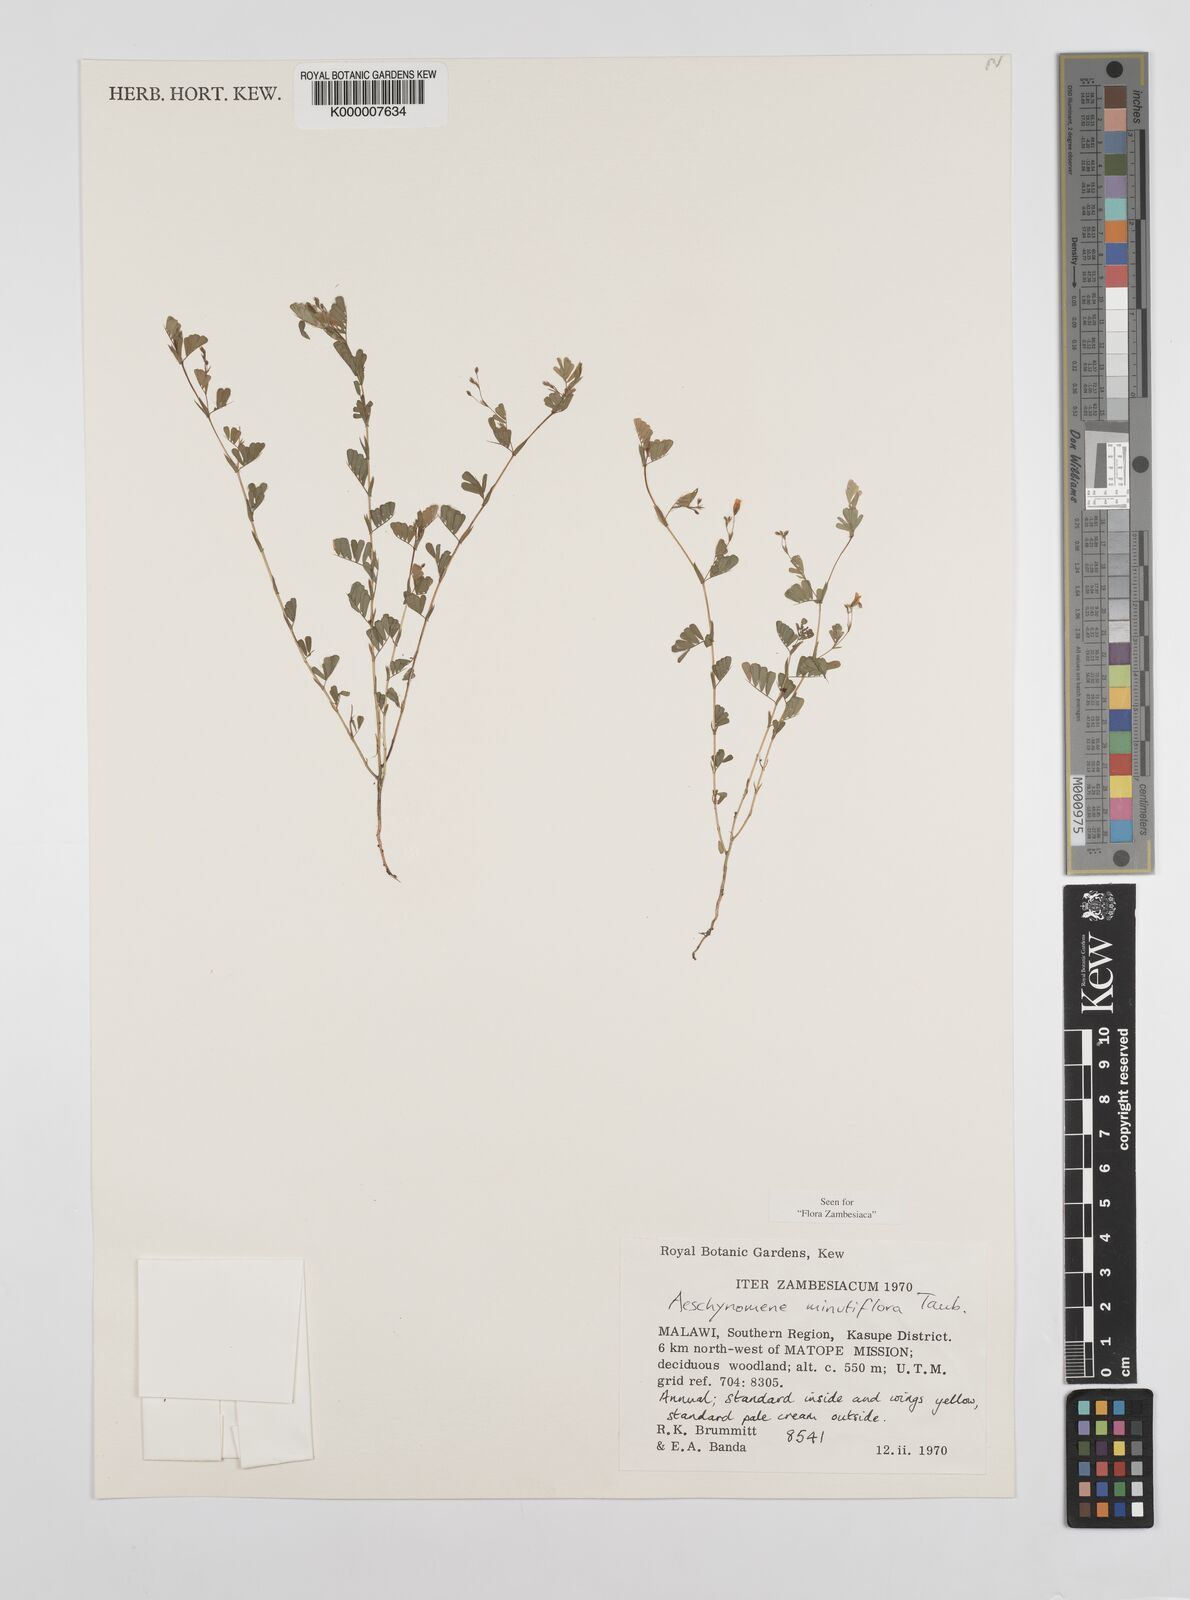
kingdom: Plantae
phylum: Tracheophyta
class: Magnoliopsida
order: Fabales
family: Fabaceae
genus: Aeschynomene
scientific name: Aeschynomene minutiflora
